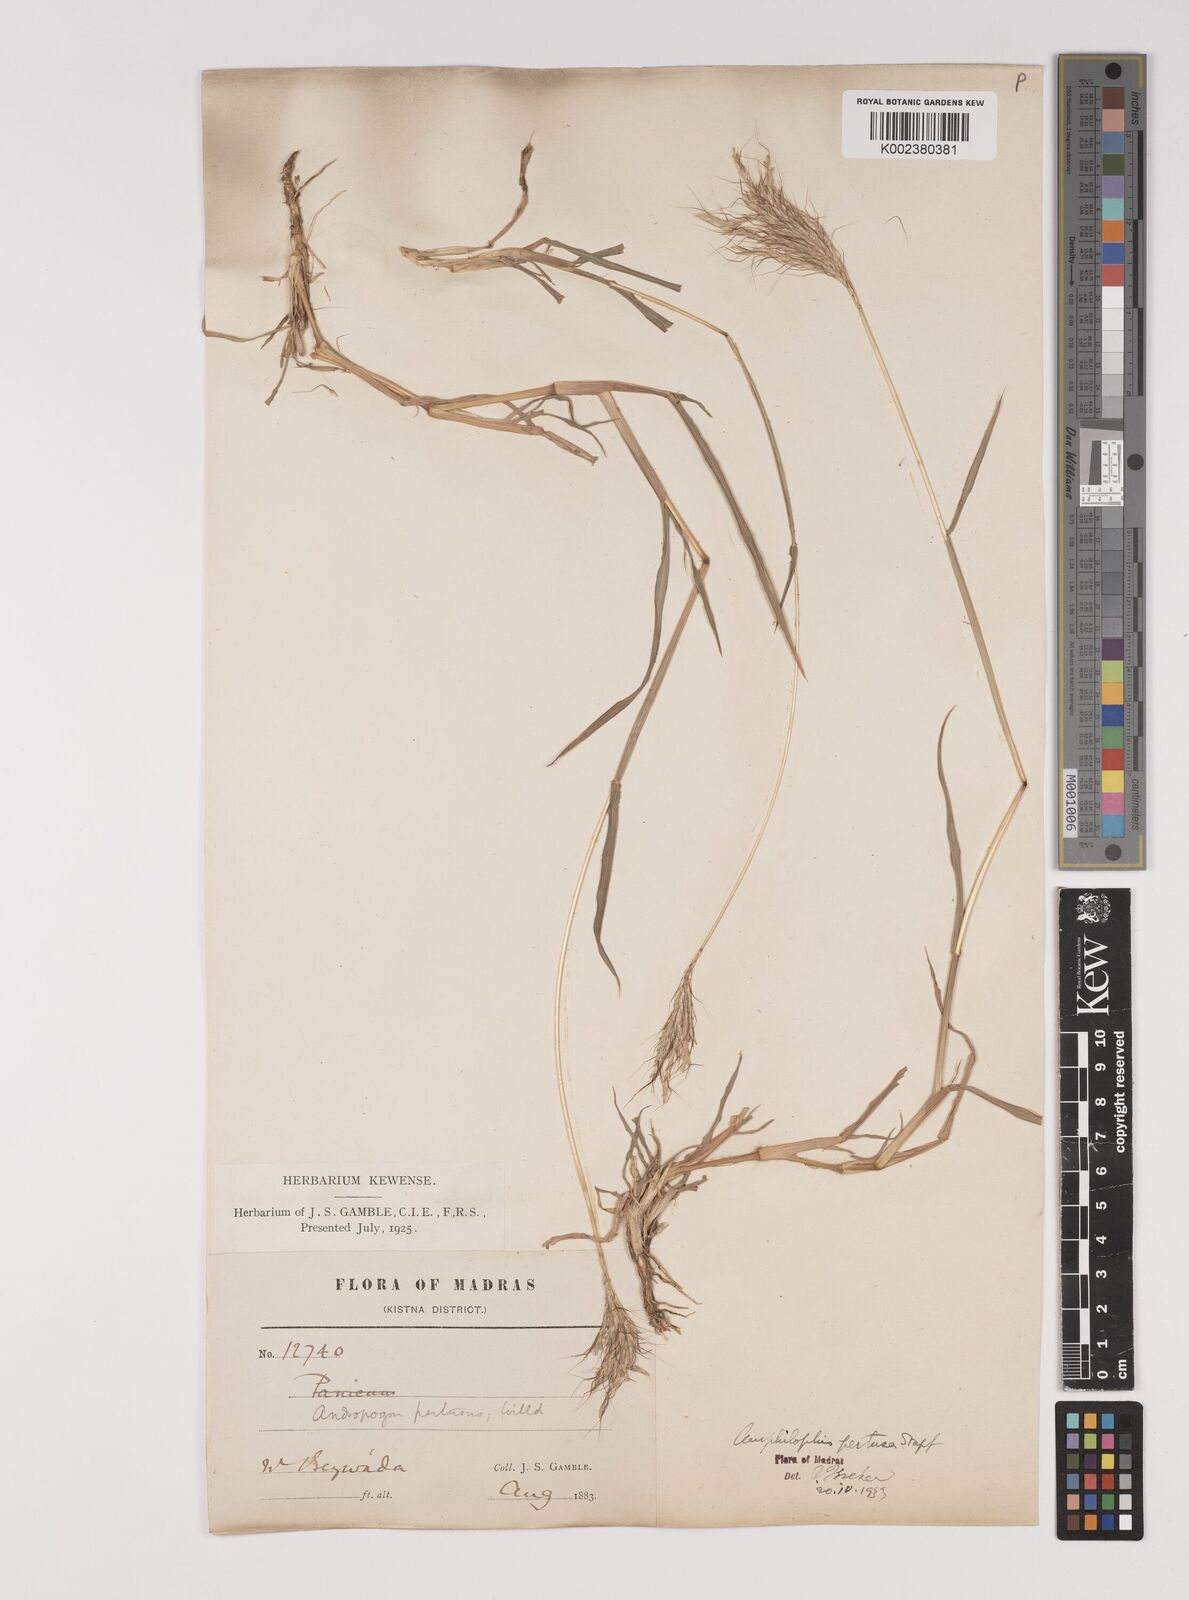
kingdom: Plantae
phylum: Tracheophyta
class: Liliopsida
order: Poales
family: Poaceae
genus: Bothriochloa
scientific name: Bothriochloa pertusa
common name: Pitted beardgrass
